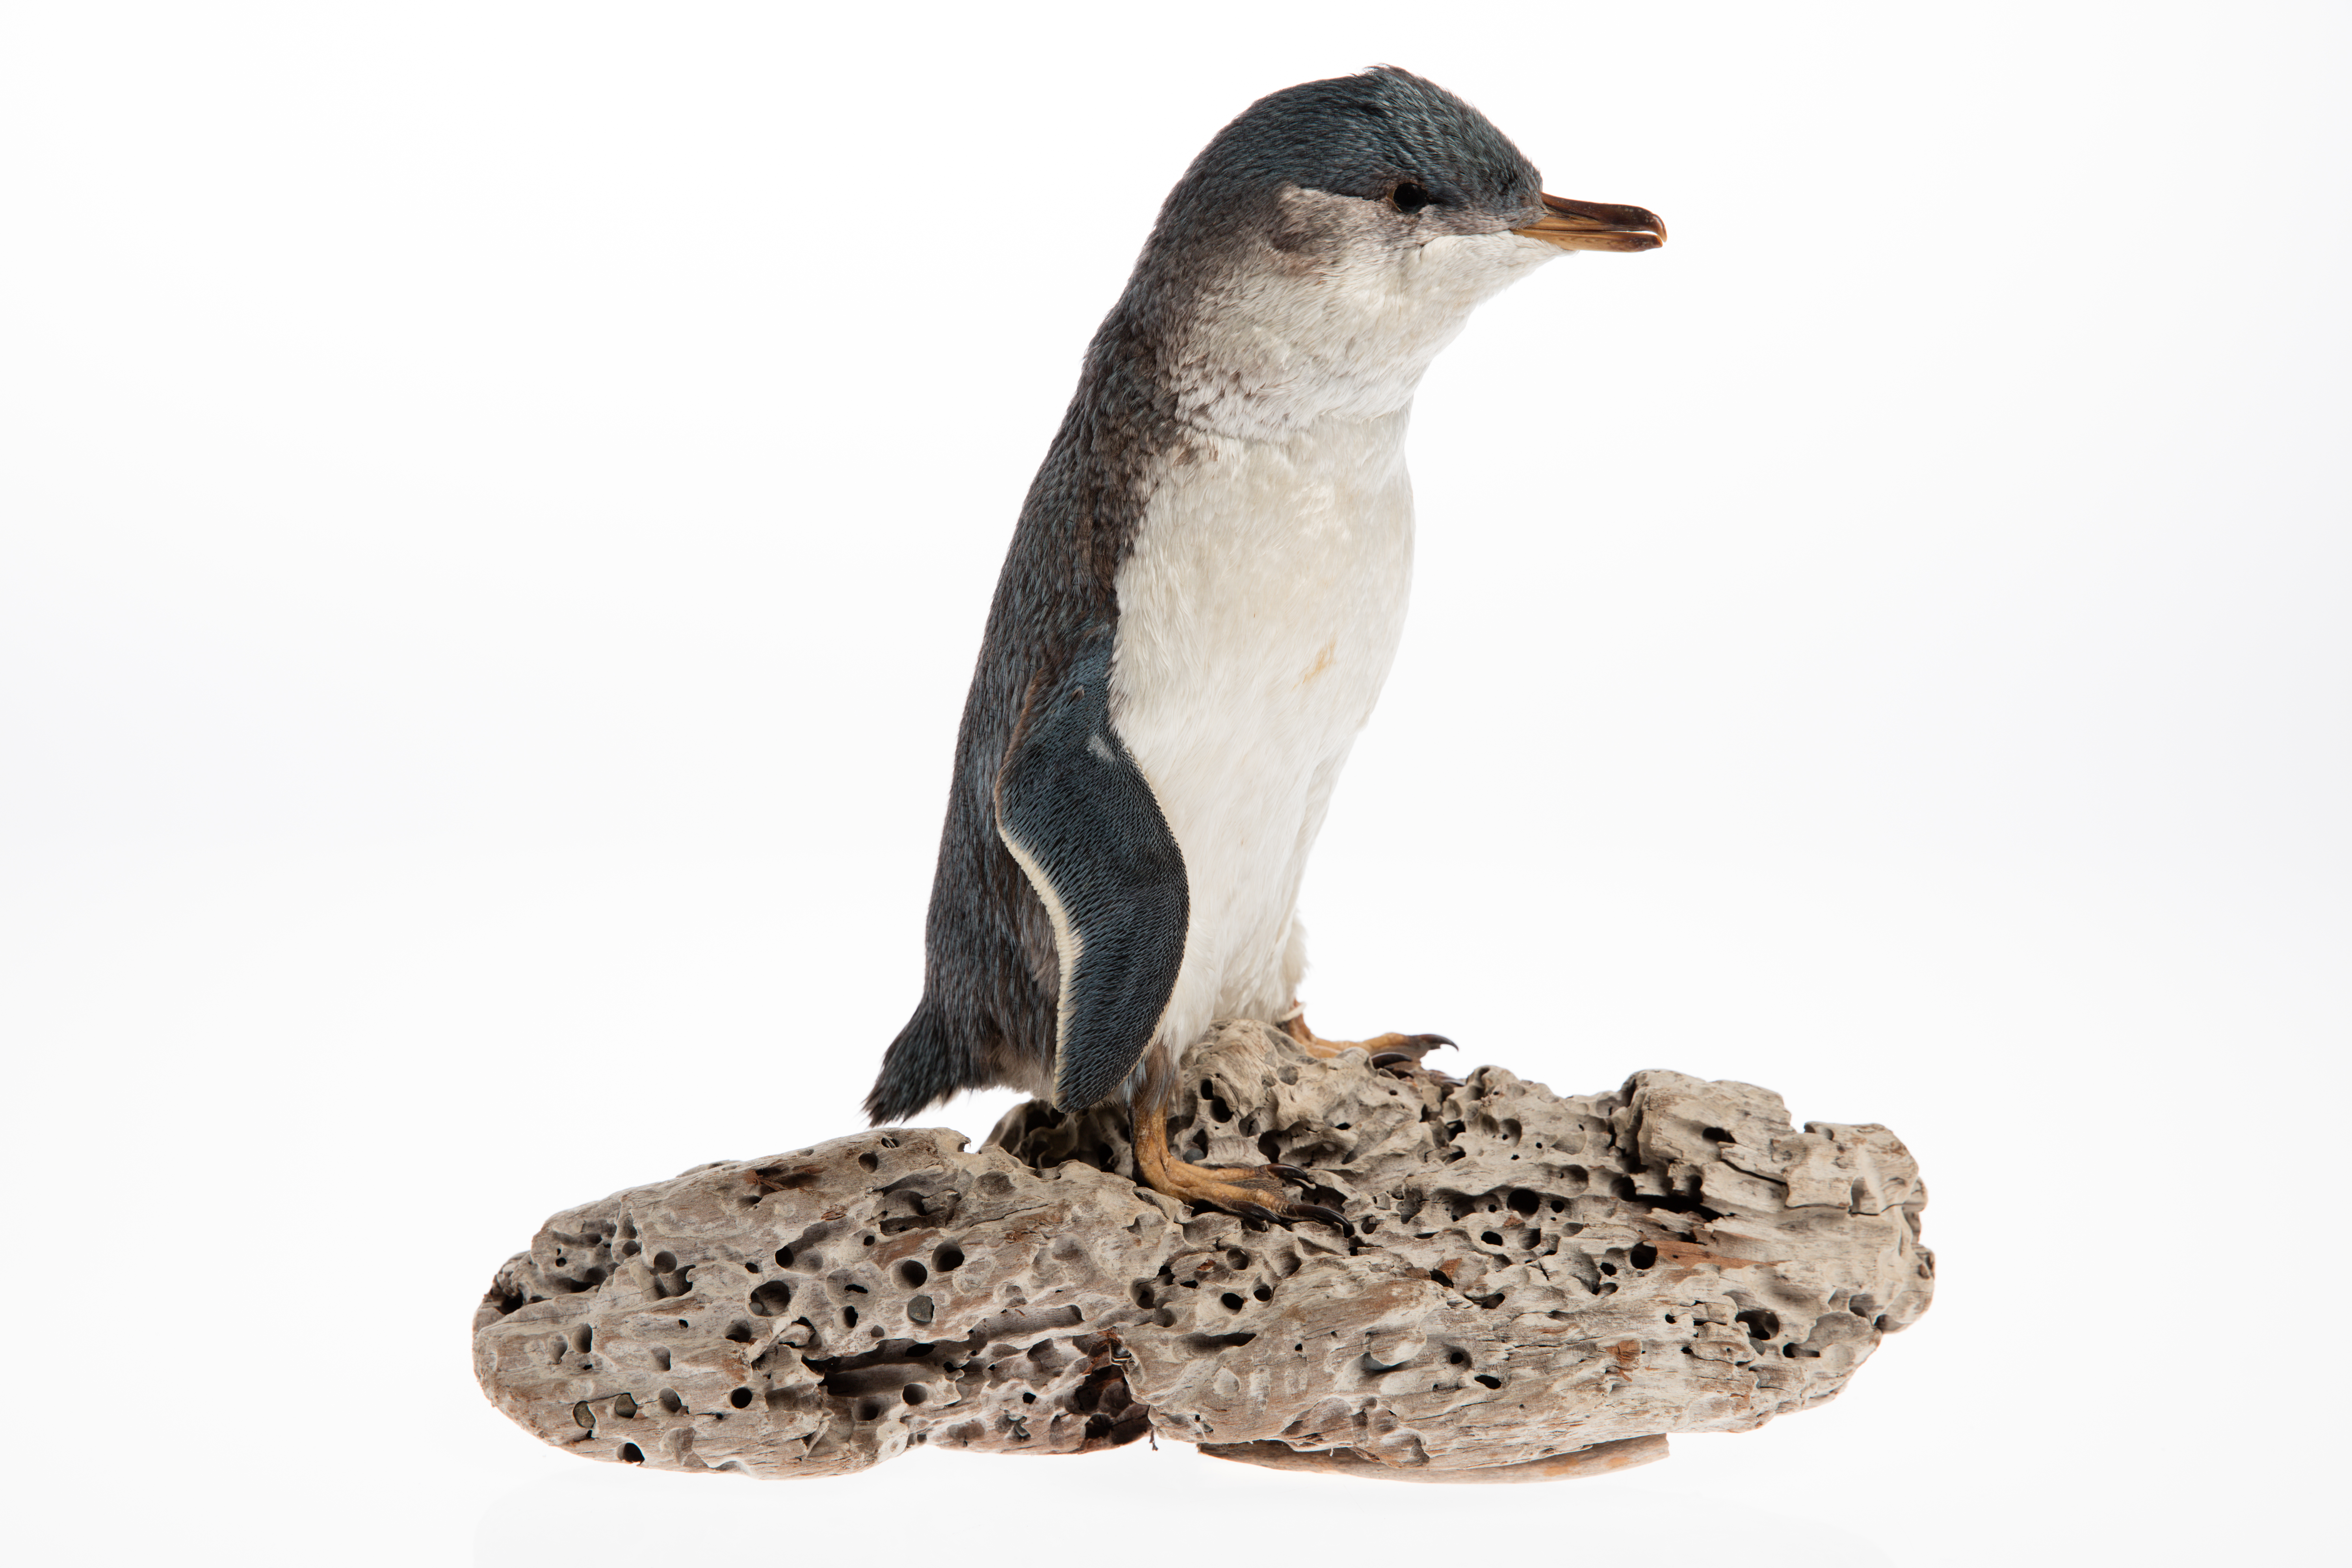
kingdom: Animalia
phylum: Chordata
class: Aves
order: Sphenisciformes
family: Spheniscidae
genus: Eudyptula
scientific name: Eudyptula minor
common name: Little penguin
